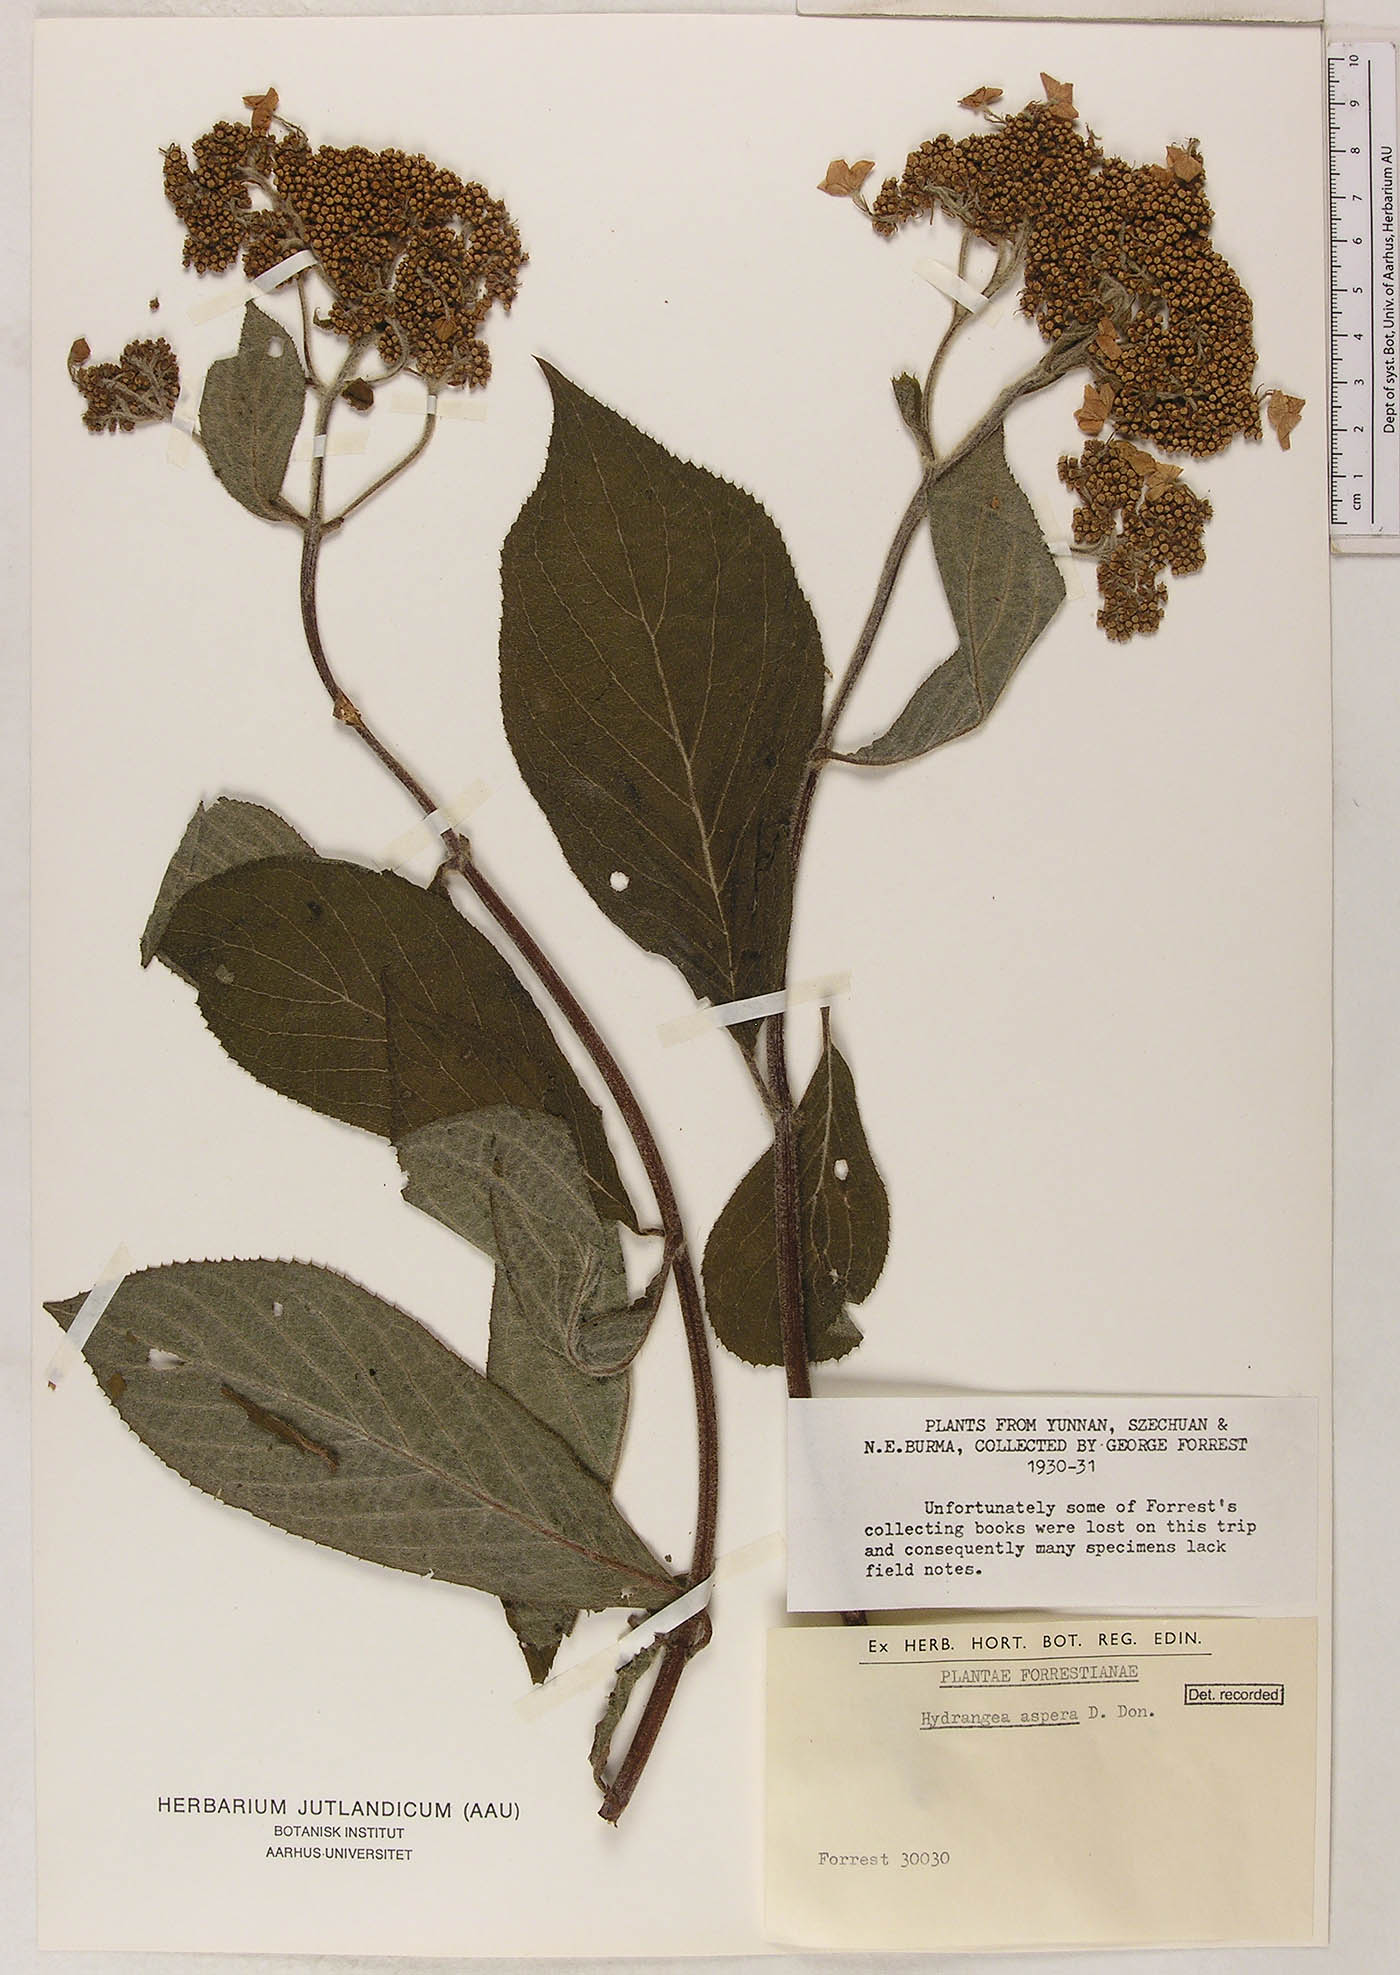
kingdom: Plantae
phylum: Tracheophyta
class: Magnoliopsida
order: Cornales
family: Hydrangeaceae
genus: Hydrangea
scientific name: Hydrangea aspera
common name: Rough-leaf hydrangea
